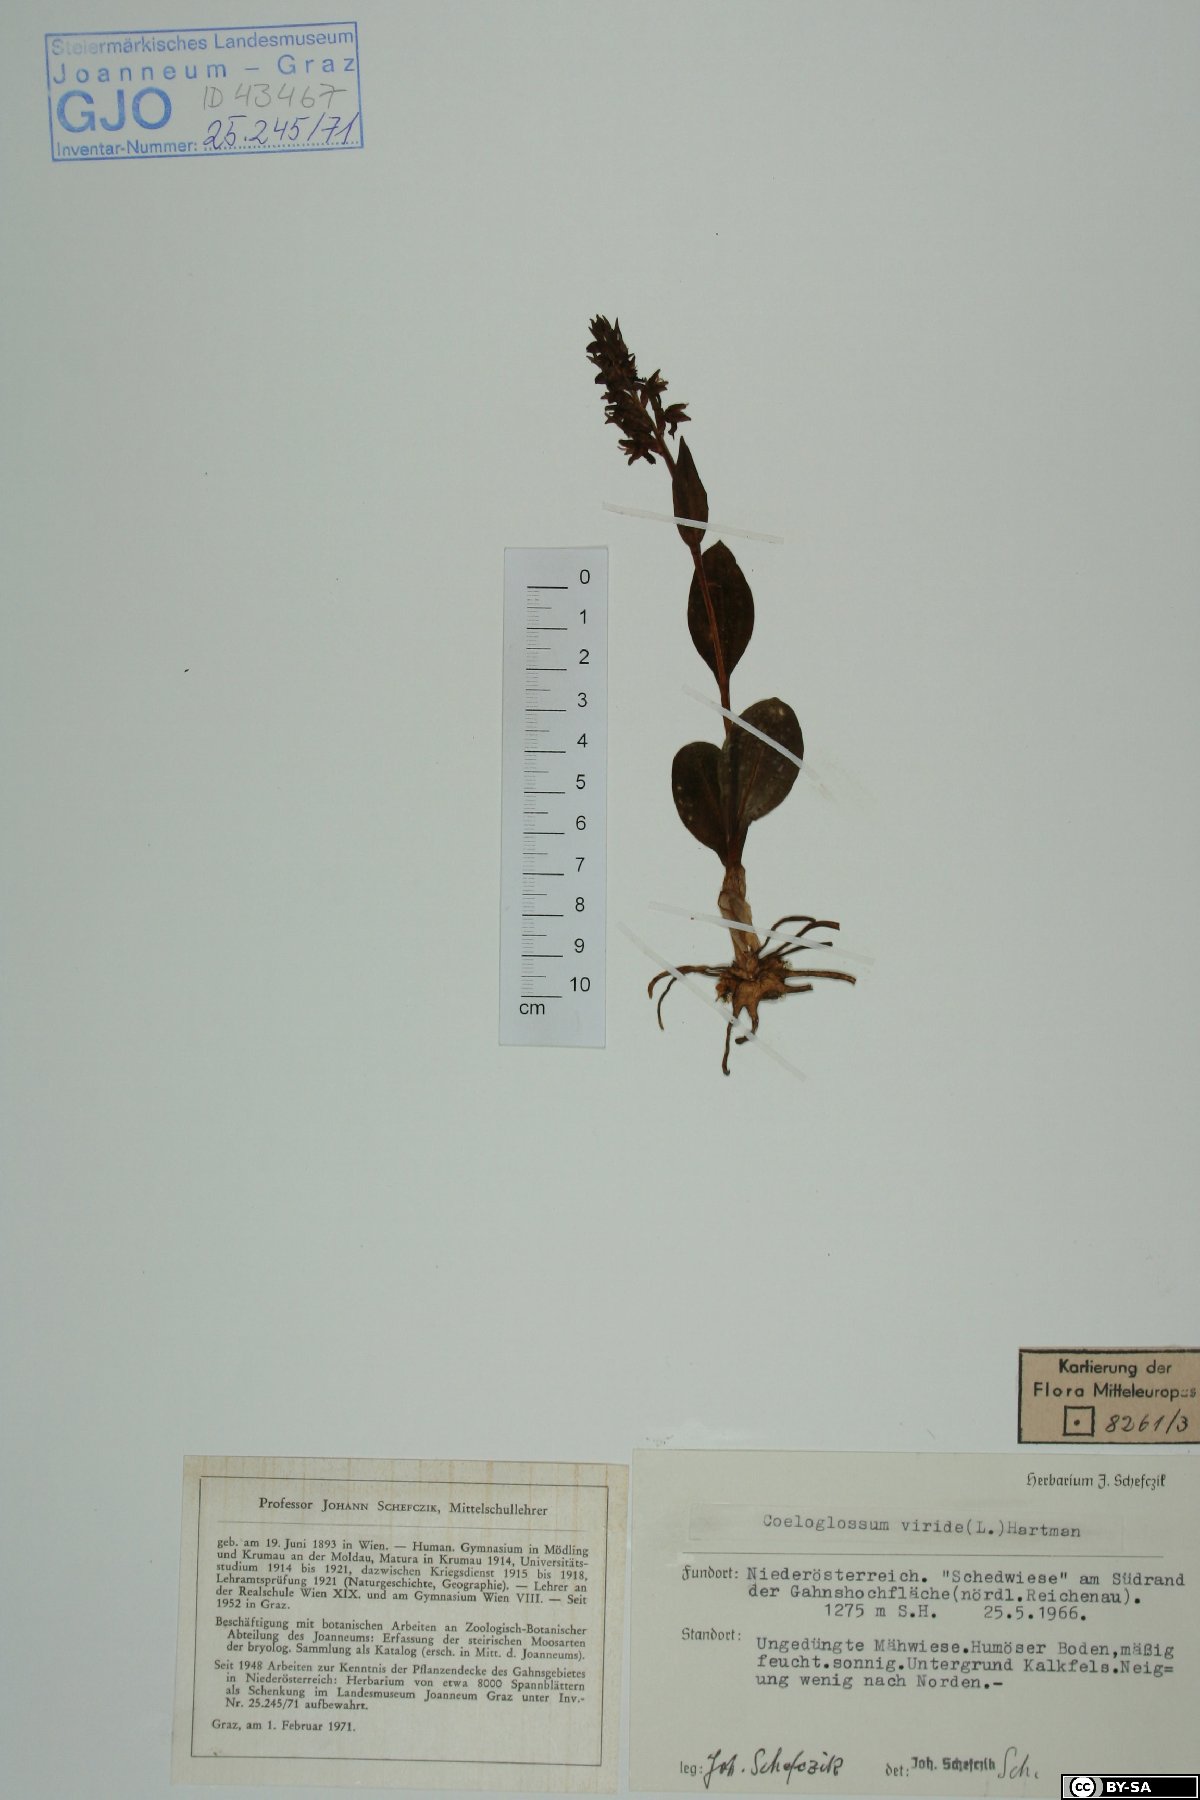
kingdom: Plantae
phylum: Tracheophyta
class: Liliopsida
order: Asparagales
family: Orchidaceae
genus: Dactylorhiza
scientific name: Dactylorhiza viridis
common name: Longbract frog orchid
